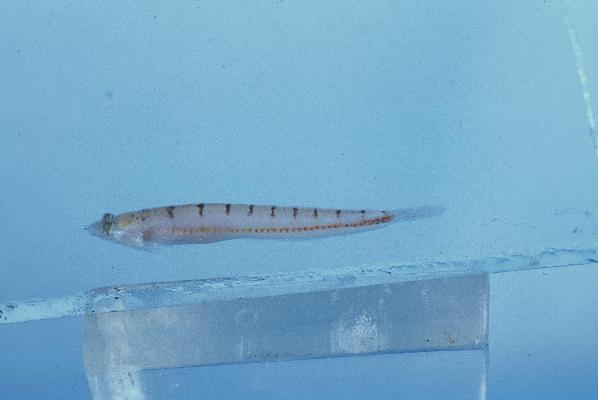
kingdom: Animalia
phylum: Chordata
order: Perciformes
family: Creediidae
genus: Limnichthys
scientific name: Limnichthys nitidus
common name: Donaldson's sandburrower
